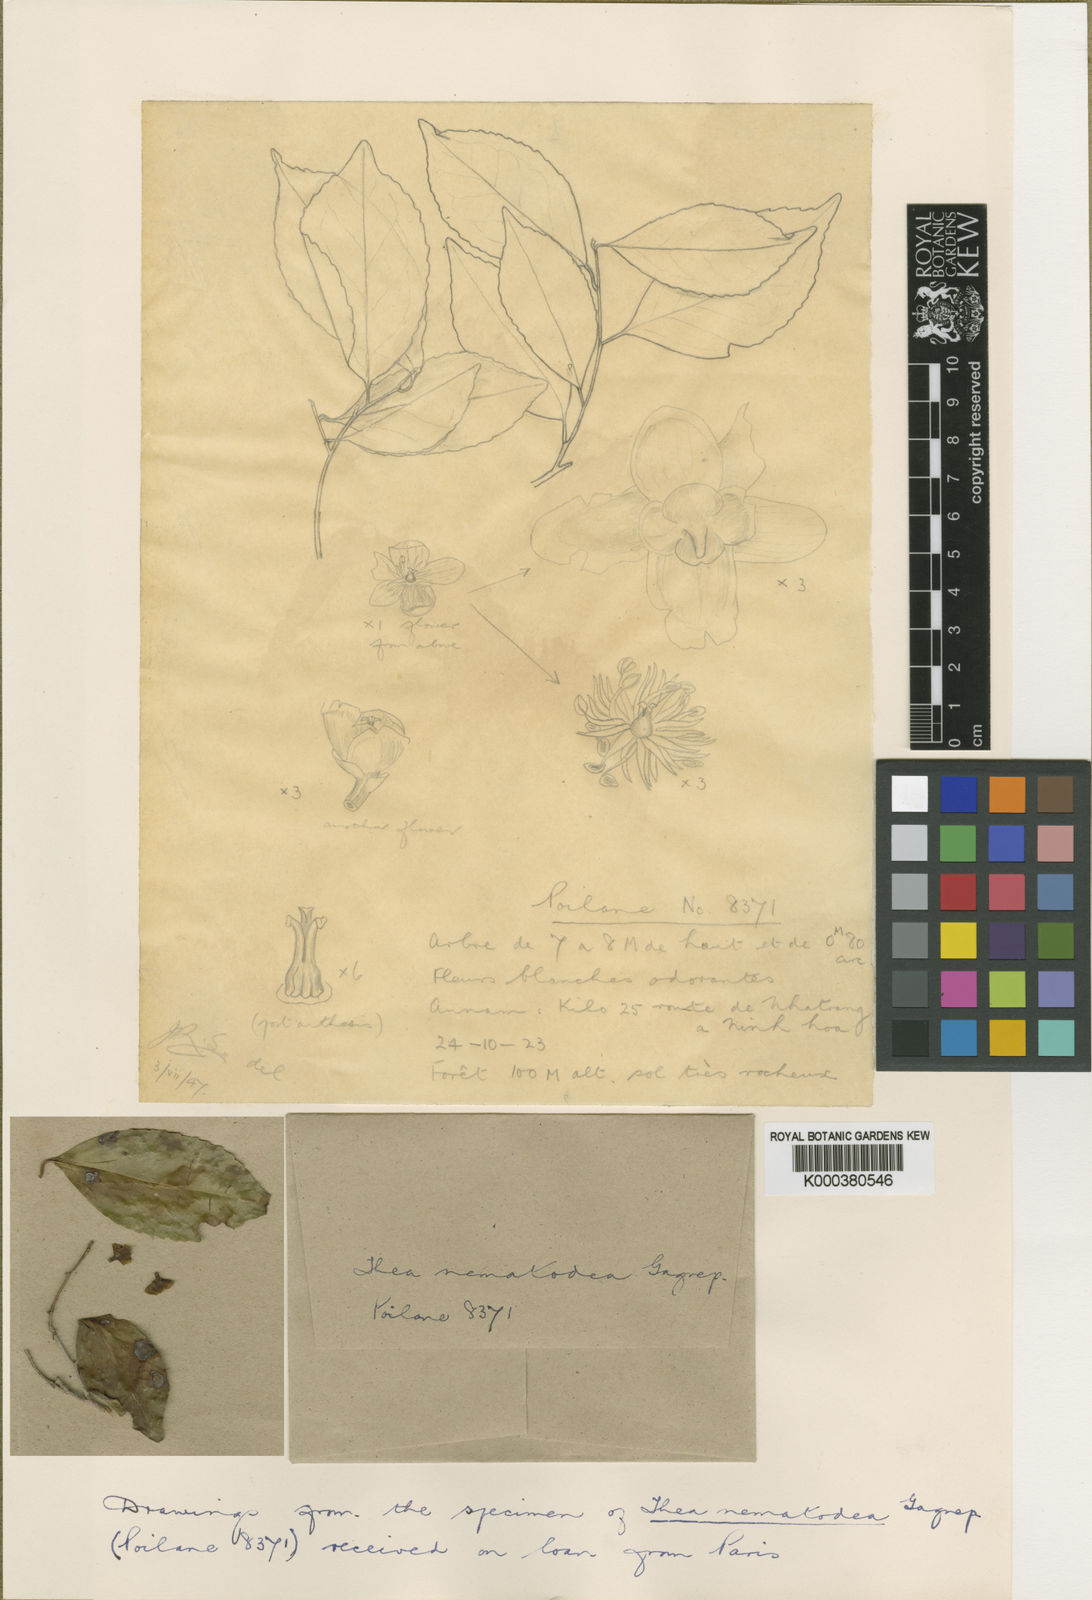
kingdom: Plantae
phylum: Tracheophyta
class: Magnoliopsida
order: Ericales
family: Theaceae
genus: Camellia
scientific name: Camellia nematodea
